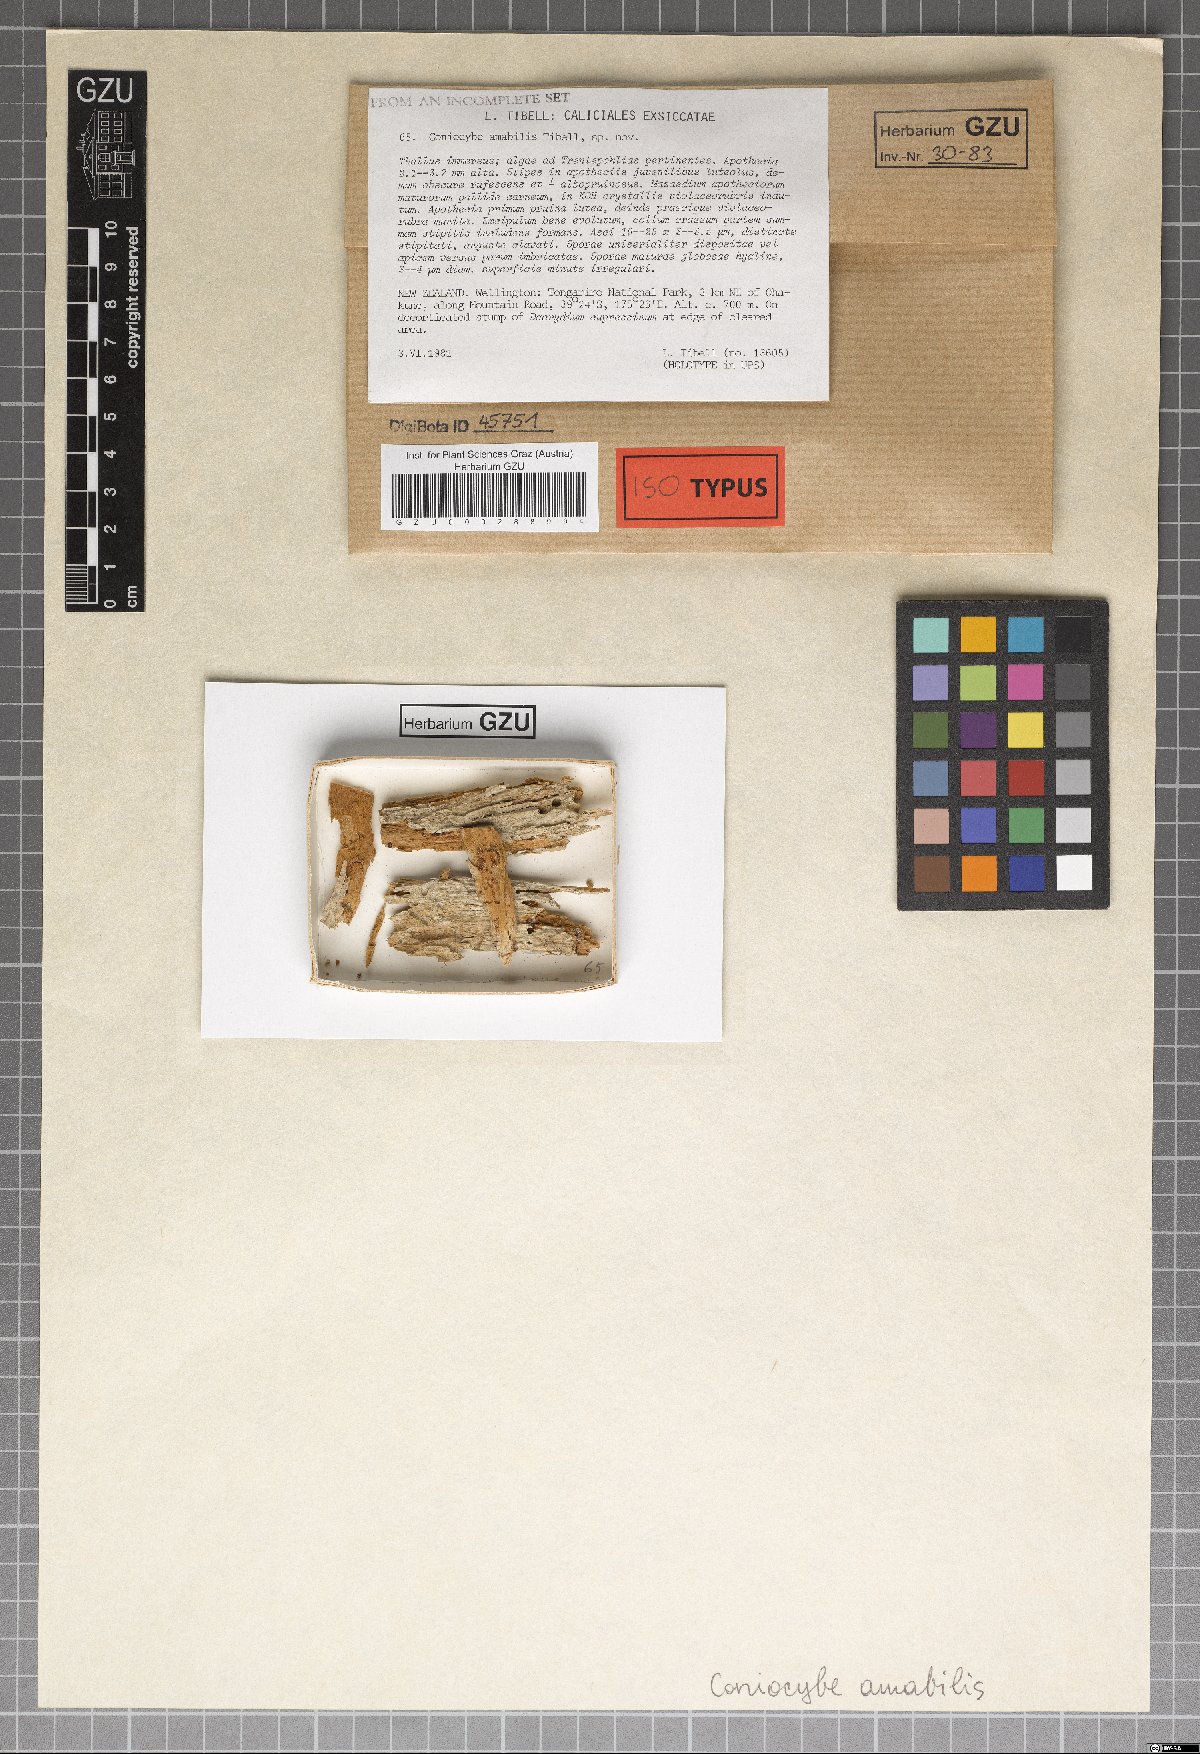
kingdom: Fungi
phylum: Ascomycota
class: Coniocybomycetes
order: Coniocybales
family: Coniocybaceae
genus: Sclerophora
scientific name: Sclerophora amabilis
